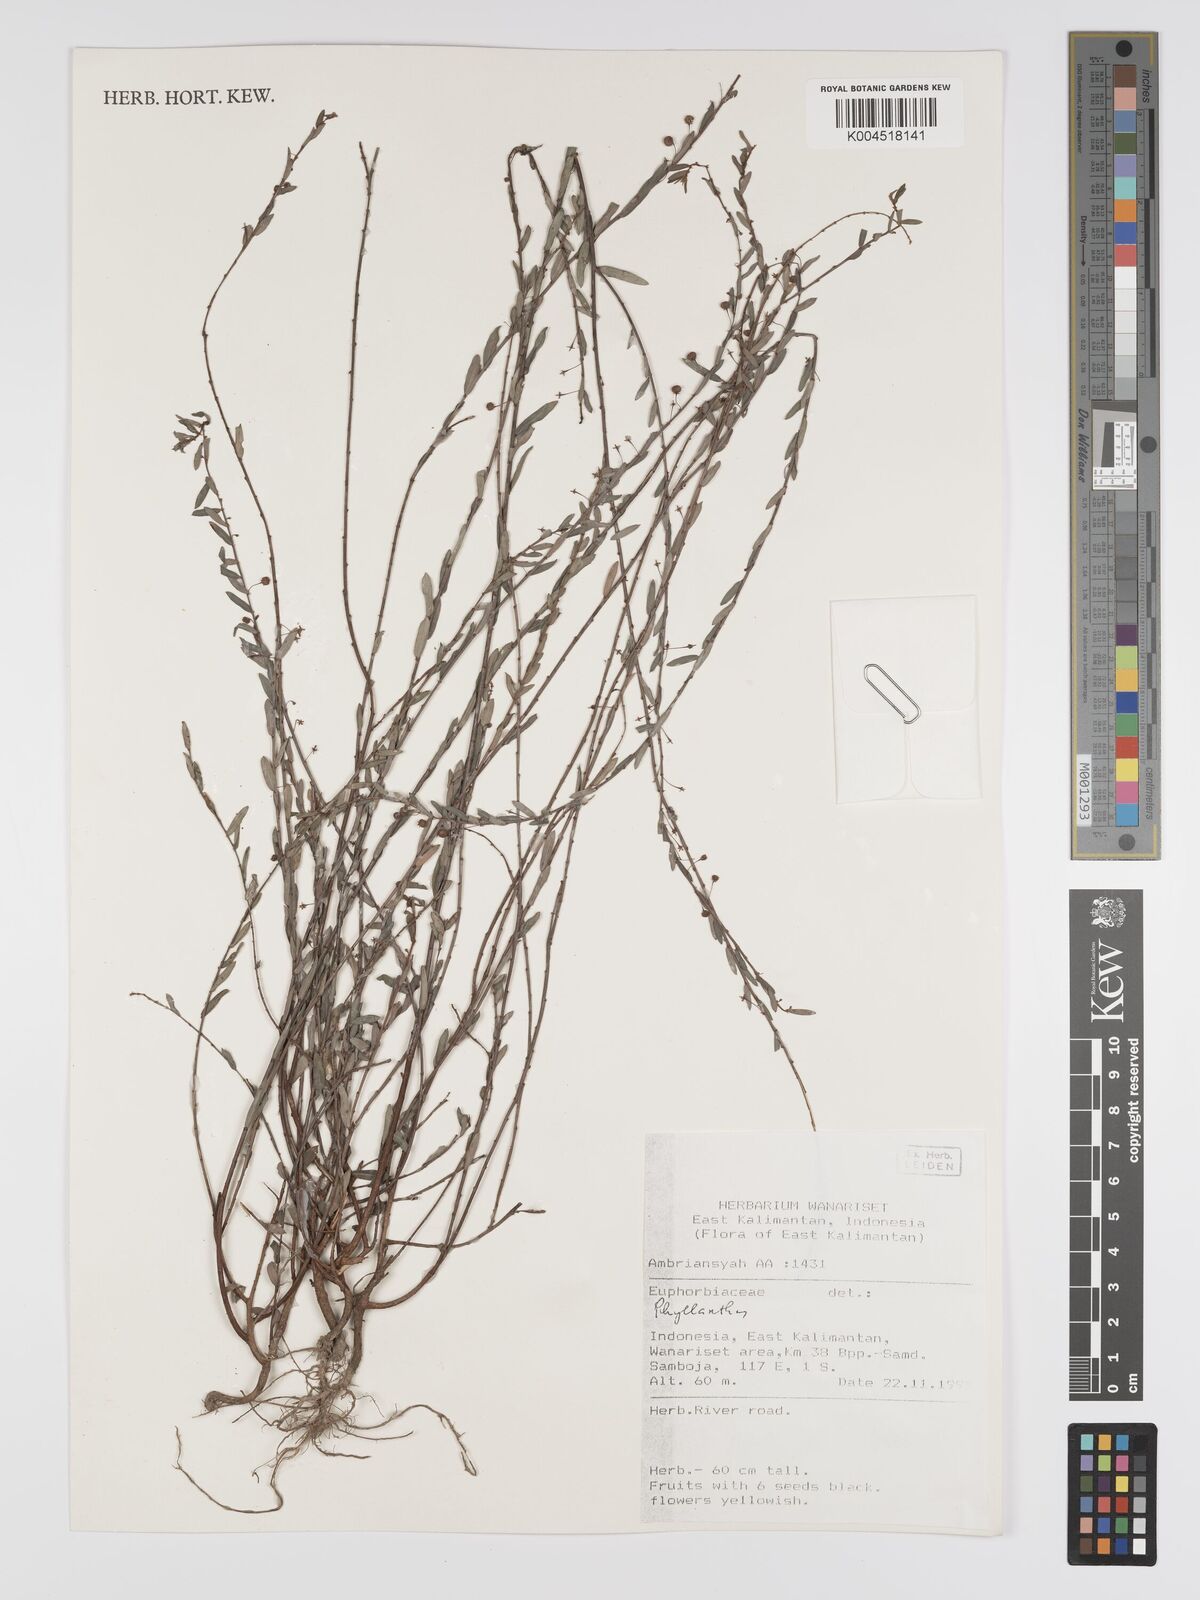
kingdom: Plantae
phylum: Tracheophyta
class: Magnoliopsida
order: Malpighiales
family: Phyllanthaceae
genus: Phyllanthus
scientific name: Phyllanthus
